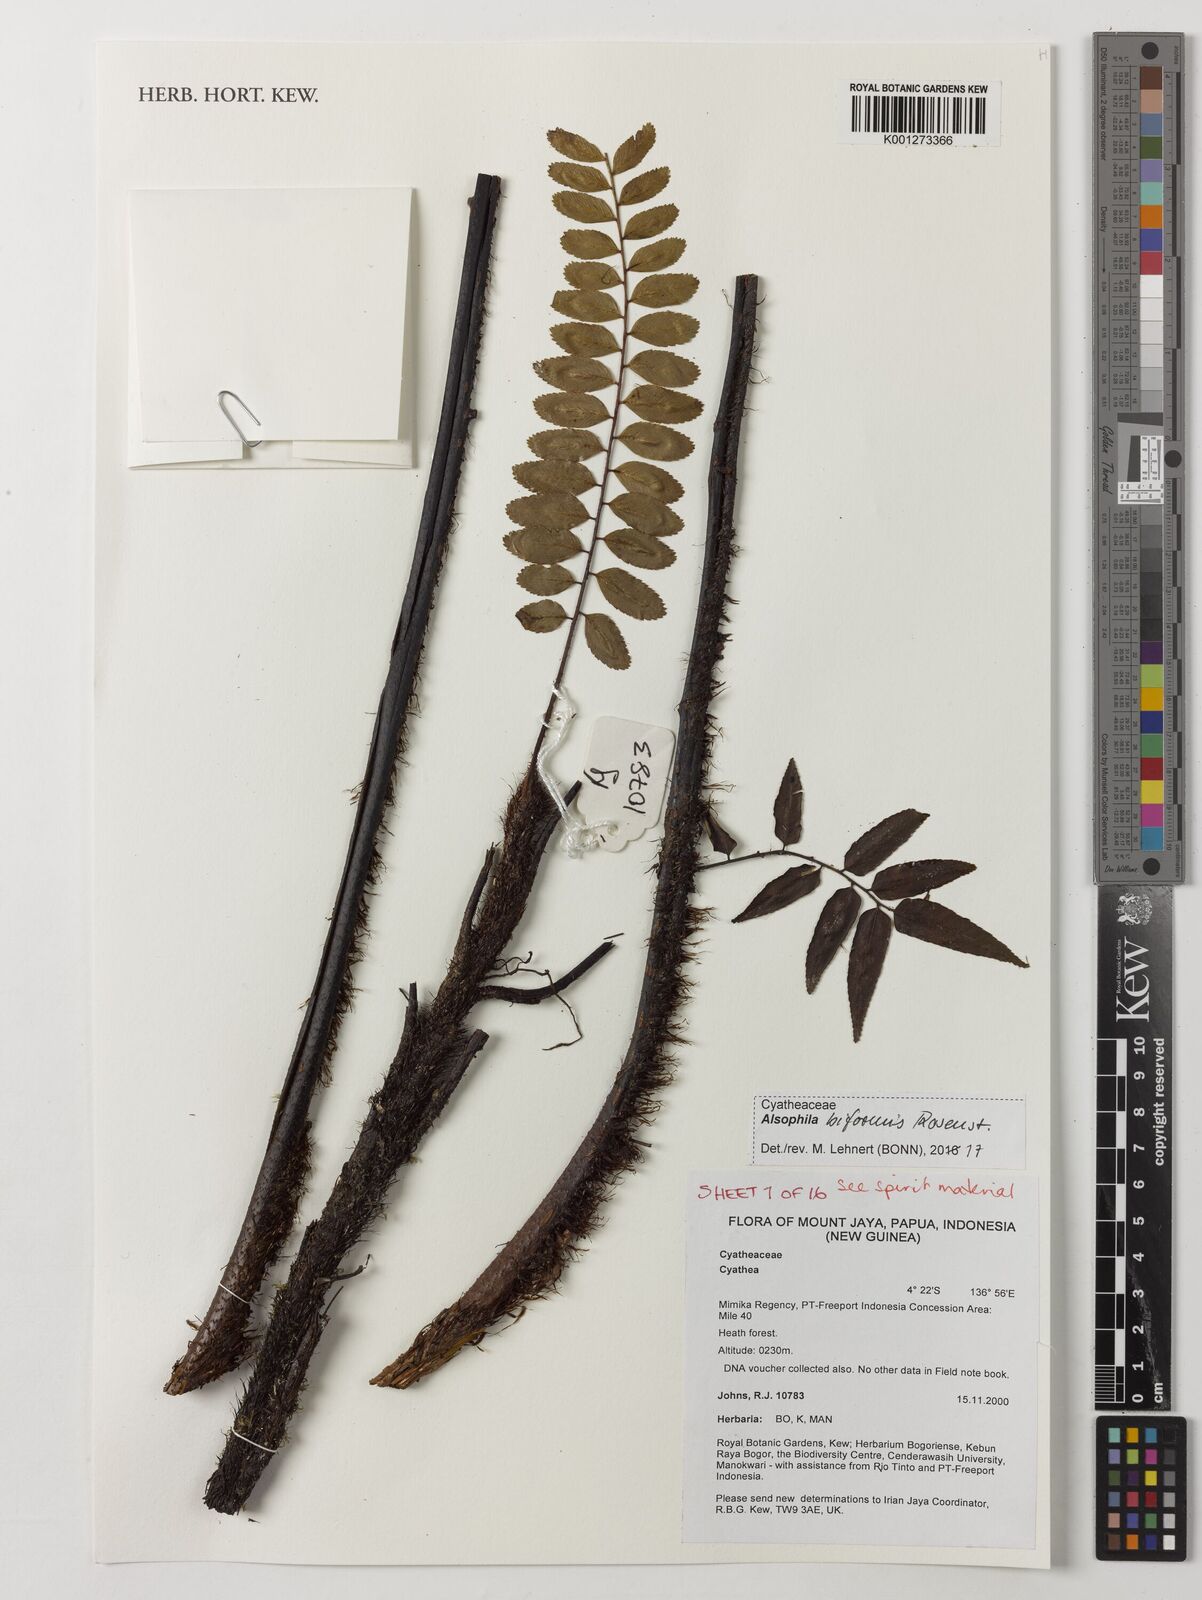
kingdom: Plantae
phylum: Tracheophyta
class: Polypodiopsida
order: Cyatheales
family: Cyatheaceae
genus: Gymnosphaera
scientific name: Gymnosphaera biformis
